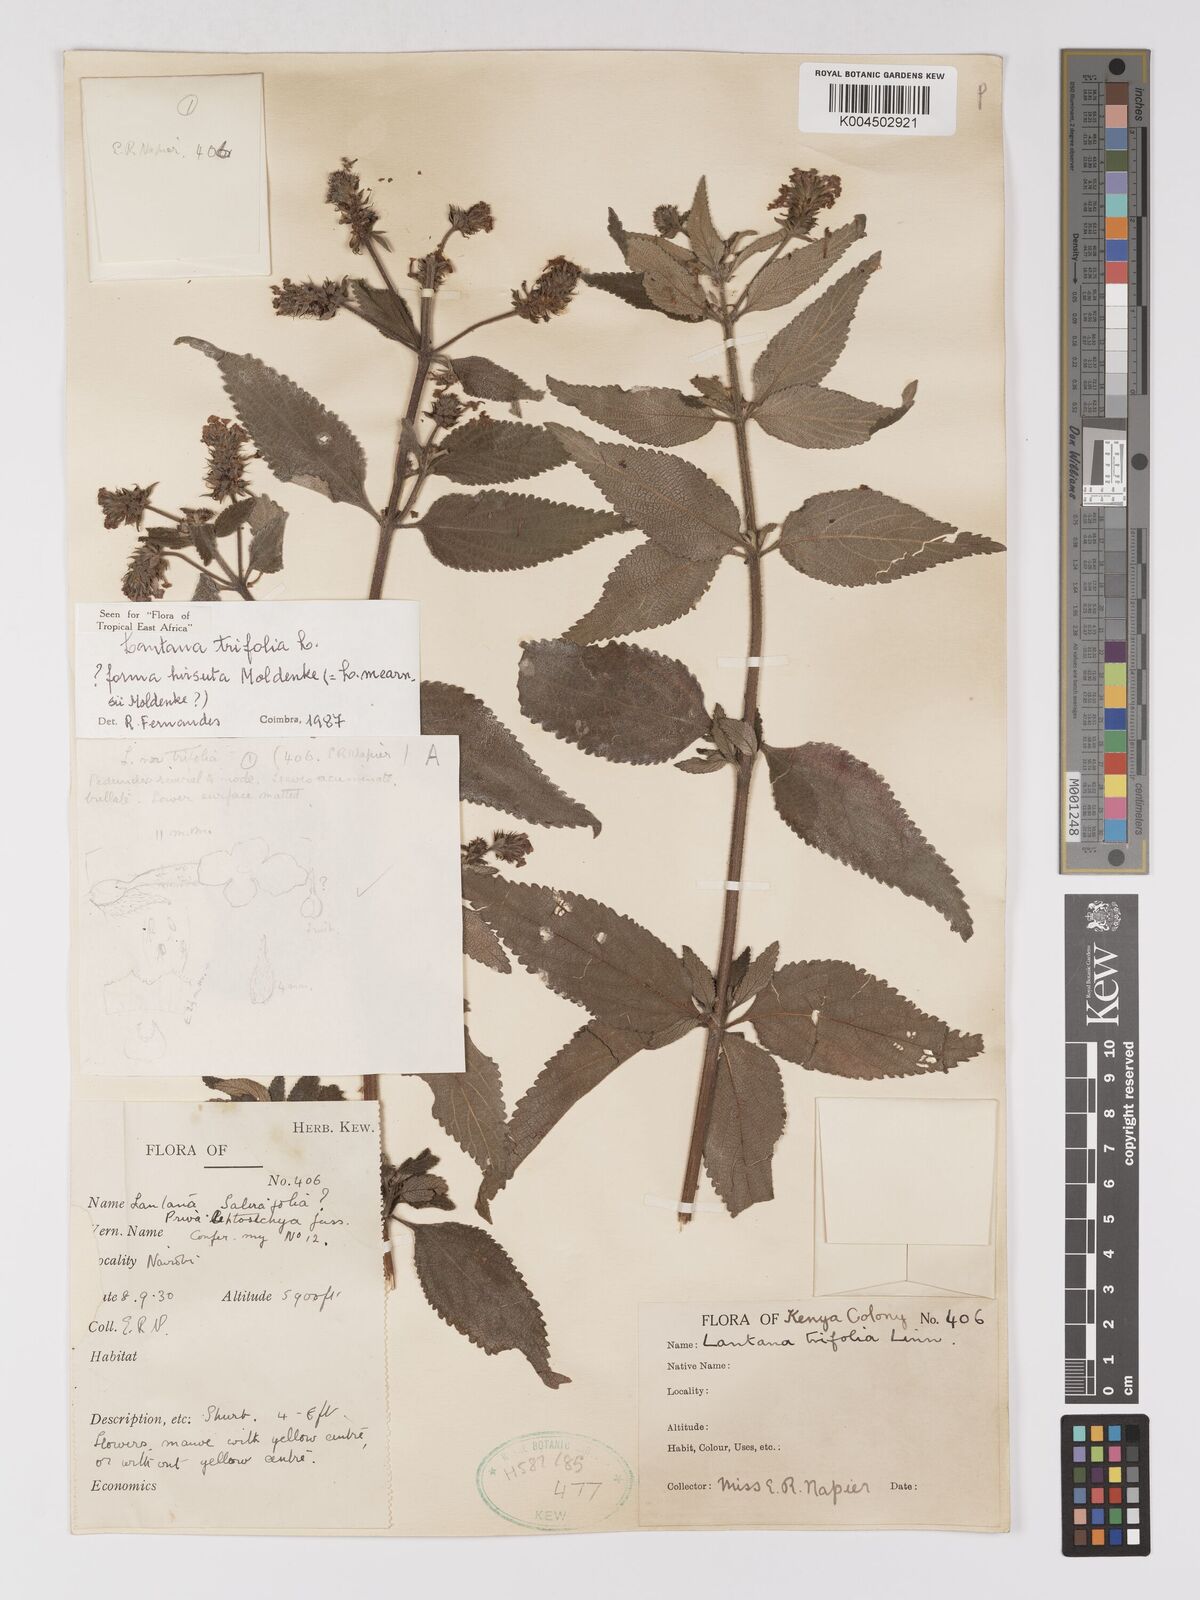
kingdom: Plantae
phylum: Tracheophyta
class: Magnoliopsida
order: Lamiales
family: Verbenaceae
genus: Lantana
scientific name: Lantana trifolia
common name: Sweet-sage
